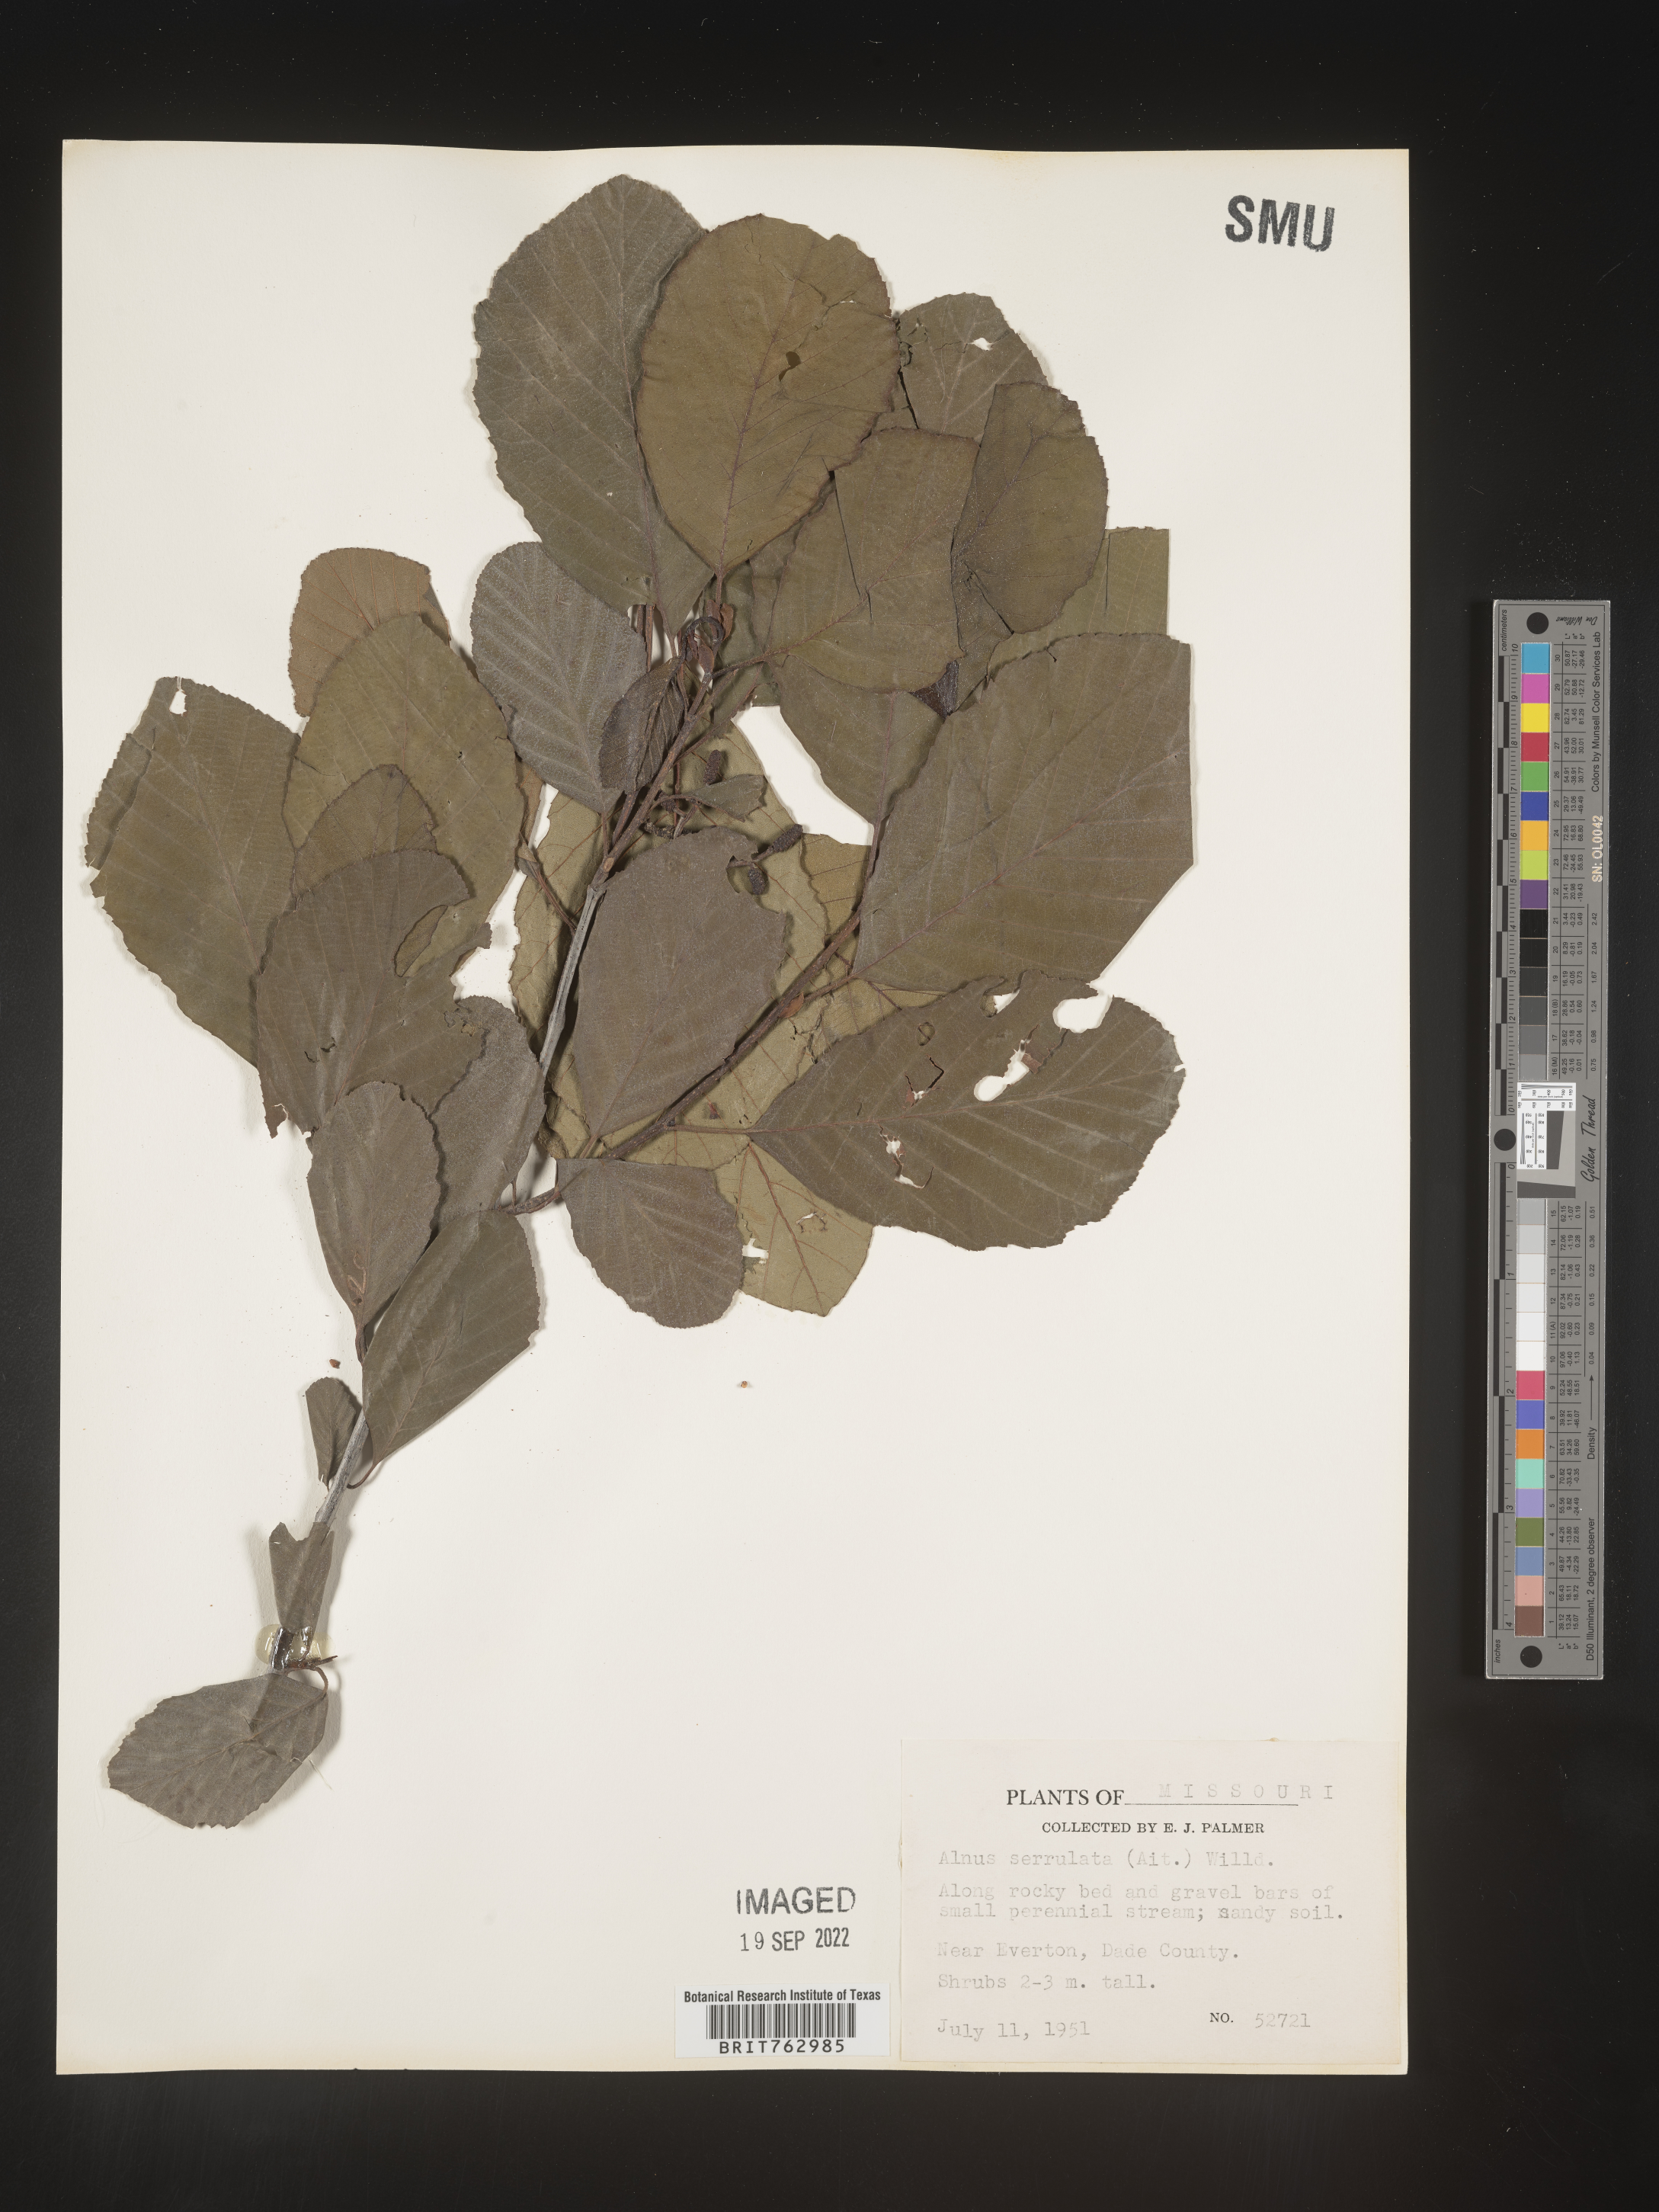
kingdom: Plantae
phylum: Tracheophyta
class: Magnoliopsida
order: Fagales
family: Betulaceae
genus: Alnus
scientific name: Alnus serrulata
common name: Hazel alder
